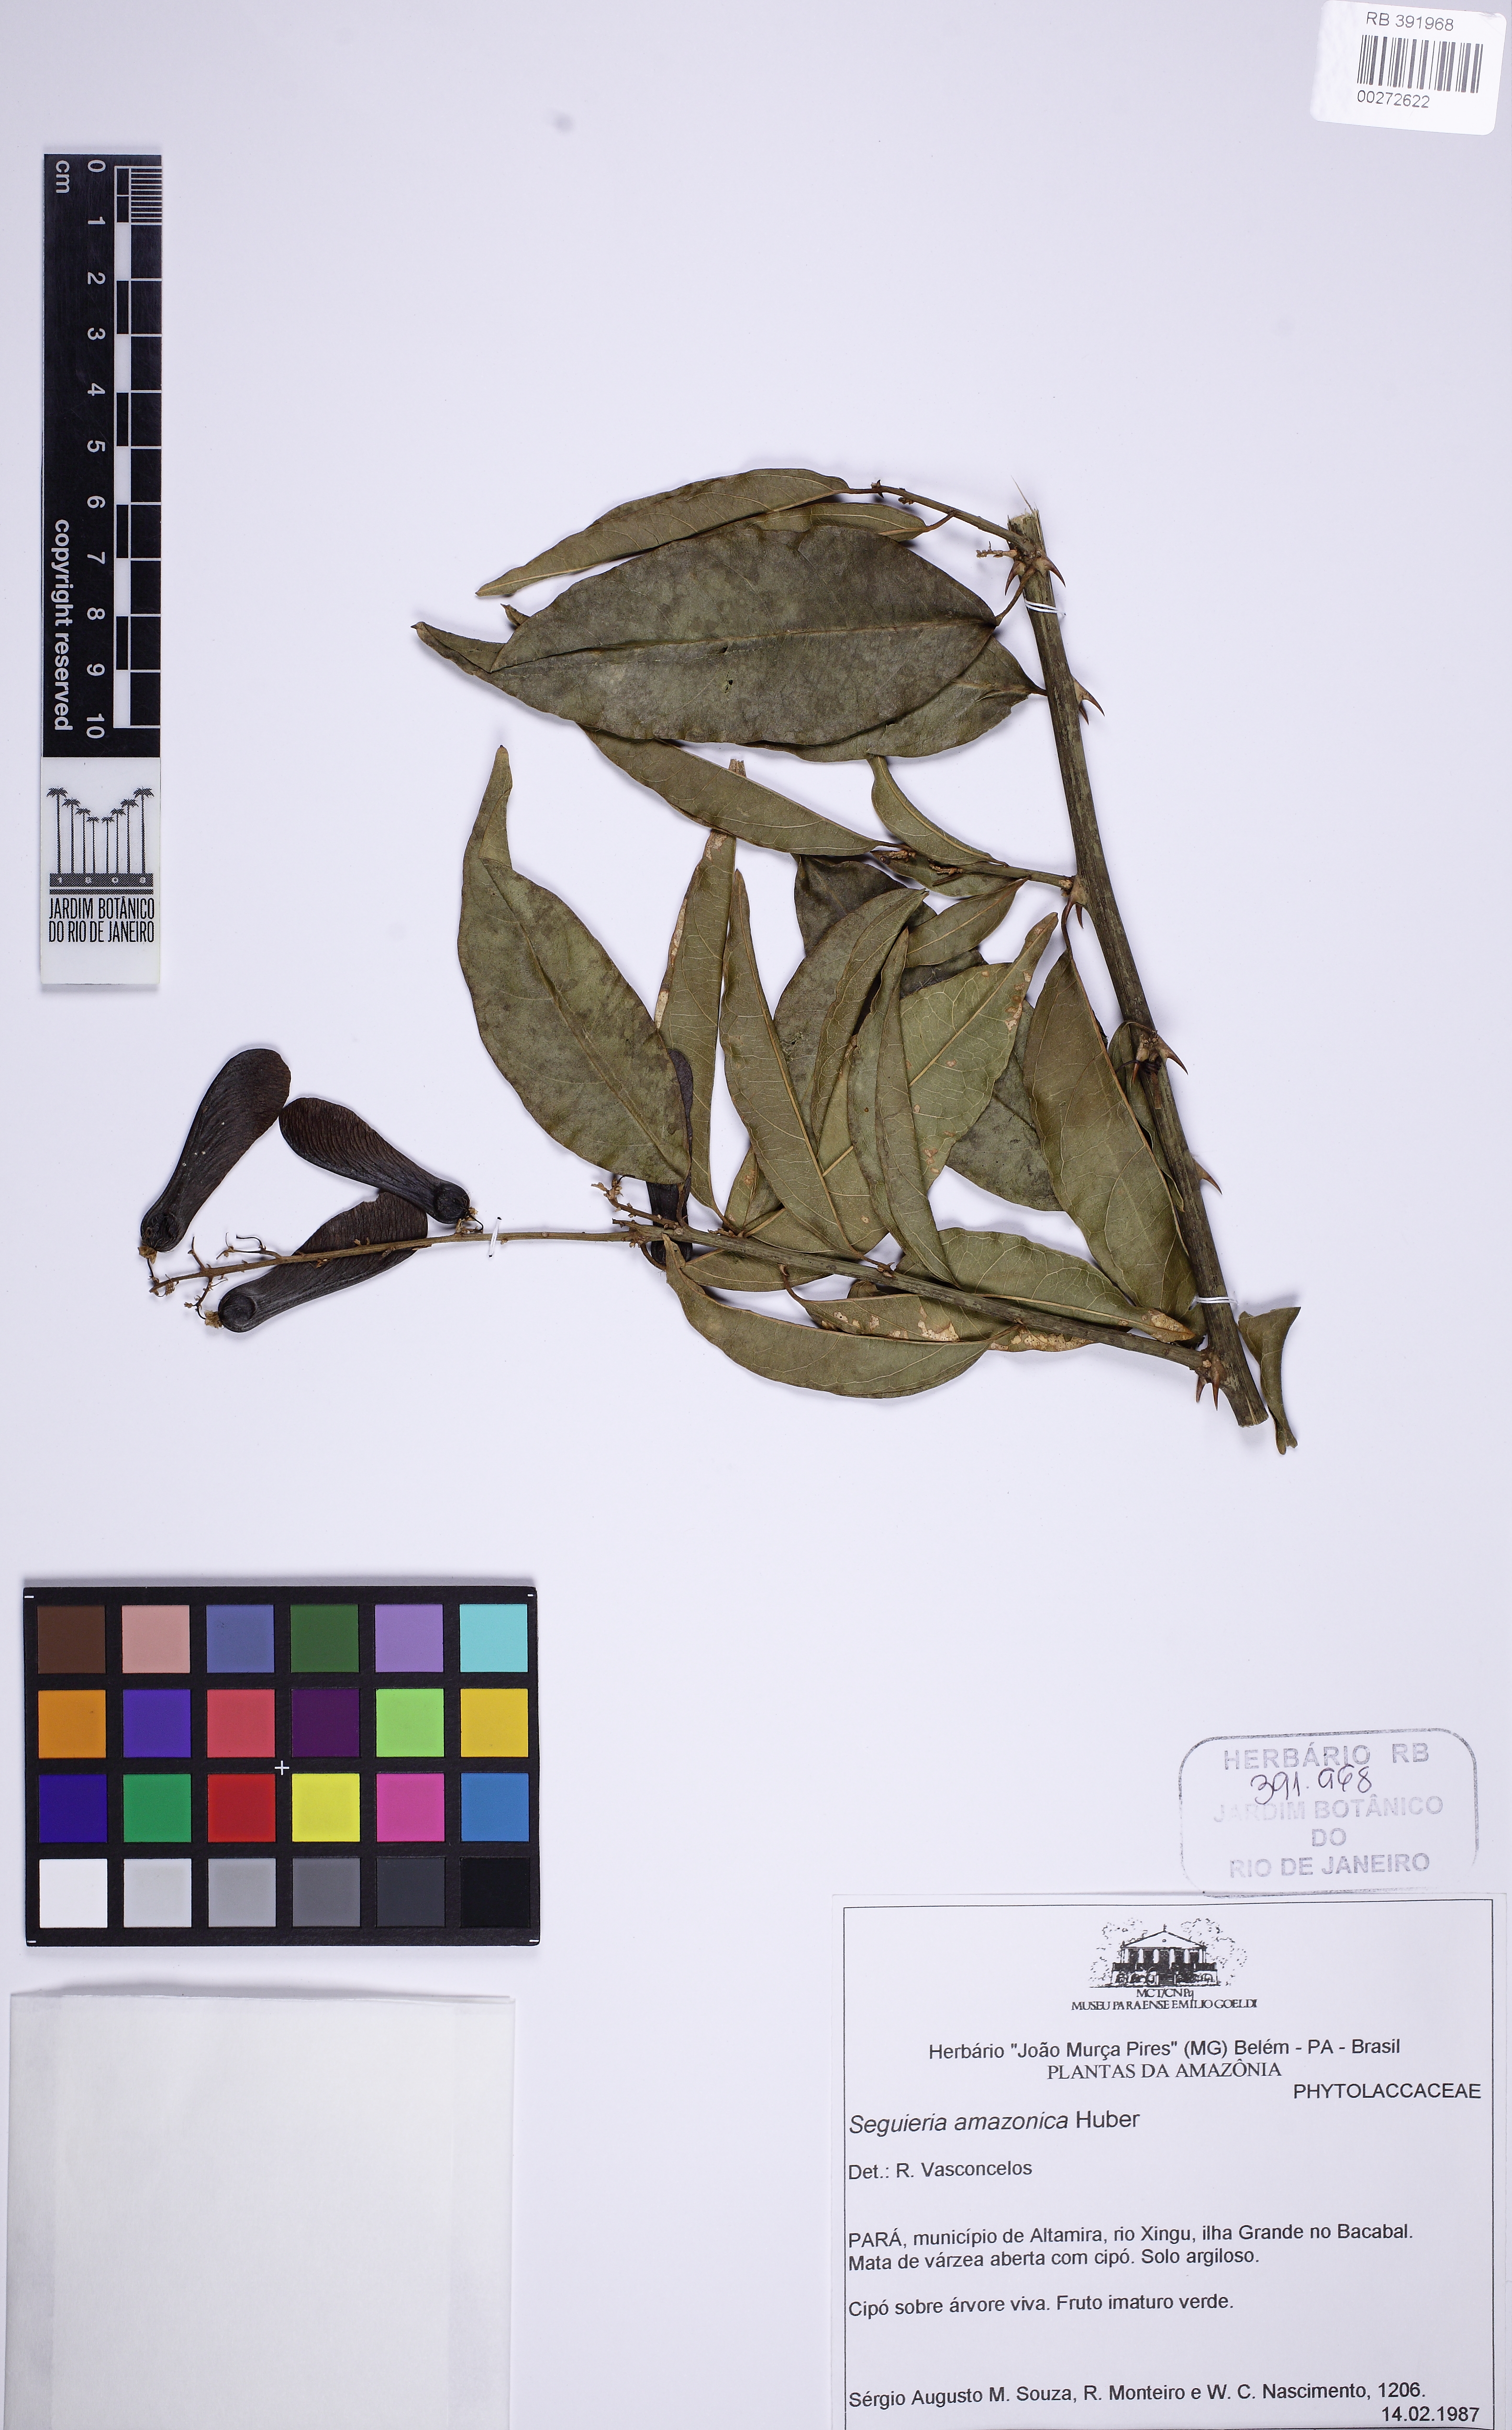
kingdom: Plantae
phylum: Tracheophyta
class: Magnoliopsida
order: Caryophyllales
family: Phytolaccaceae
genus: Seguieria
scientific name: Seguieria
